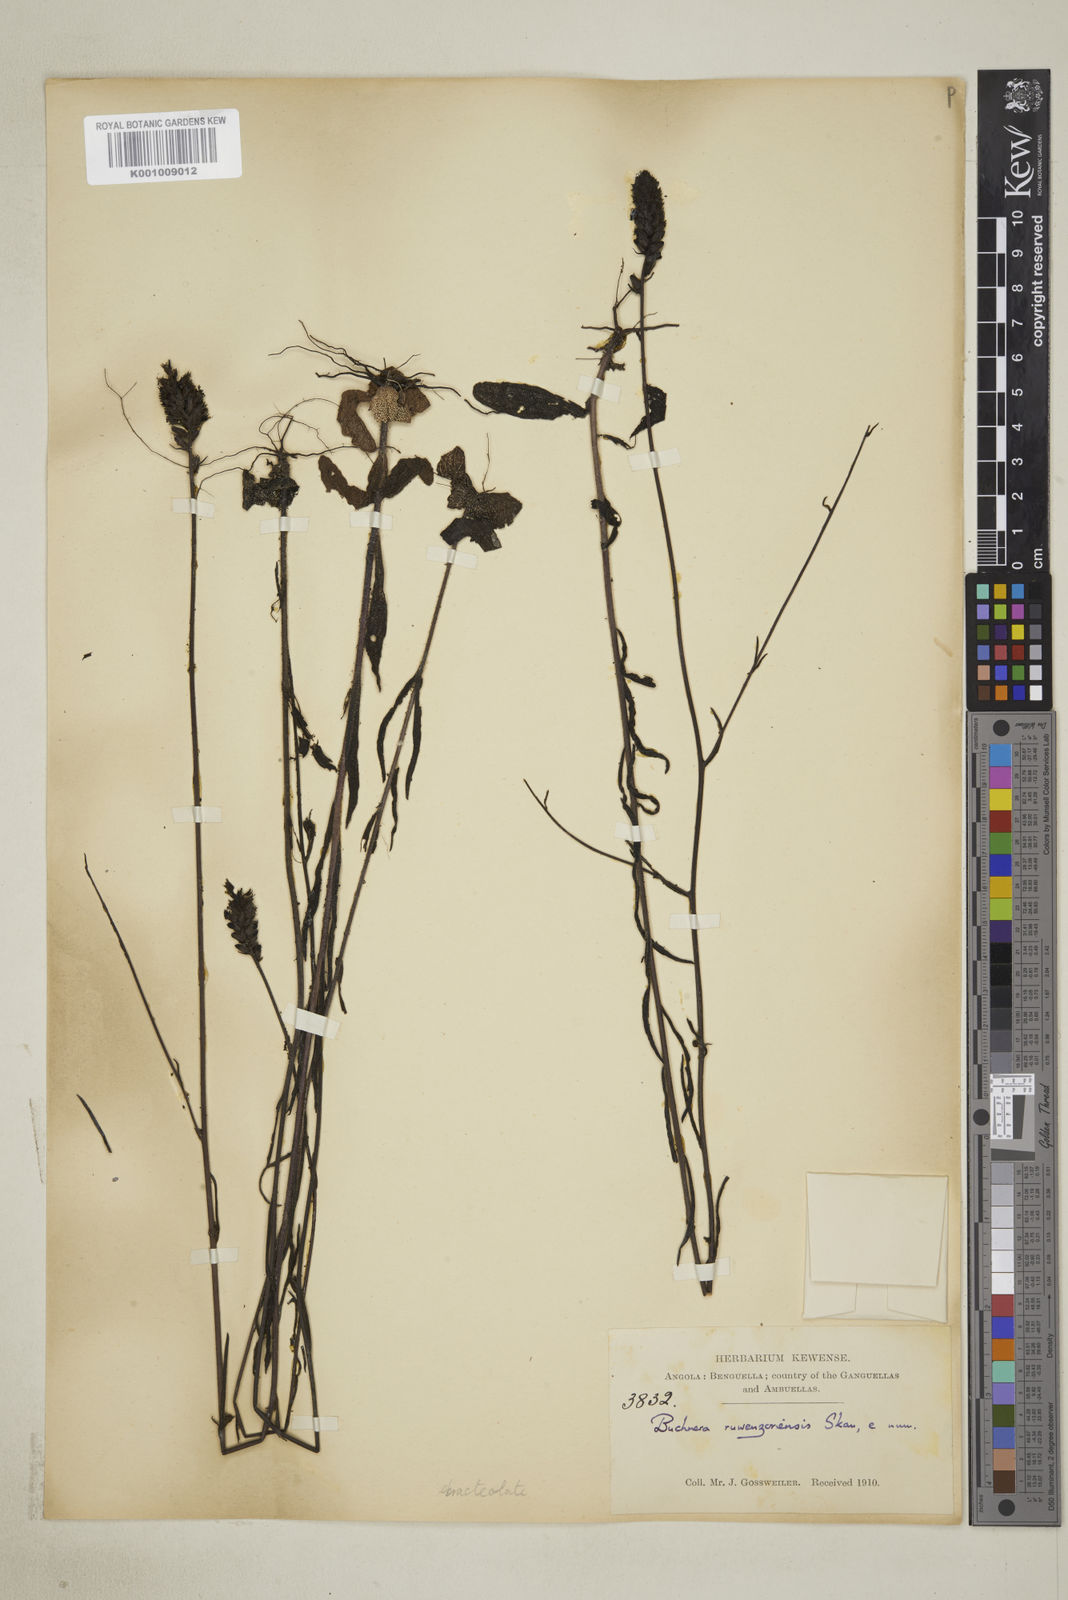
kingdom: Plantae
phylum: Tracheophyta
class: Magnoliopsida
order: Lamiales
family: Orobanchaceae
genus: Buchnera
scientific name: Buchnera ruwenzoriensis
